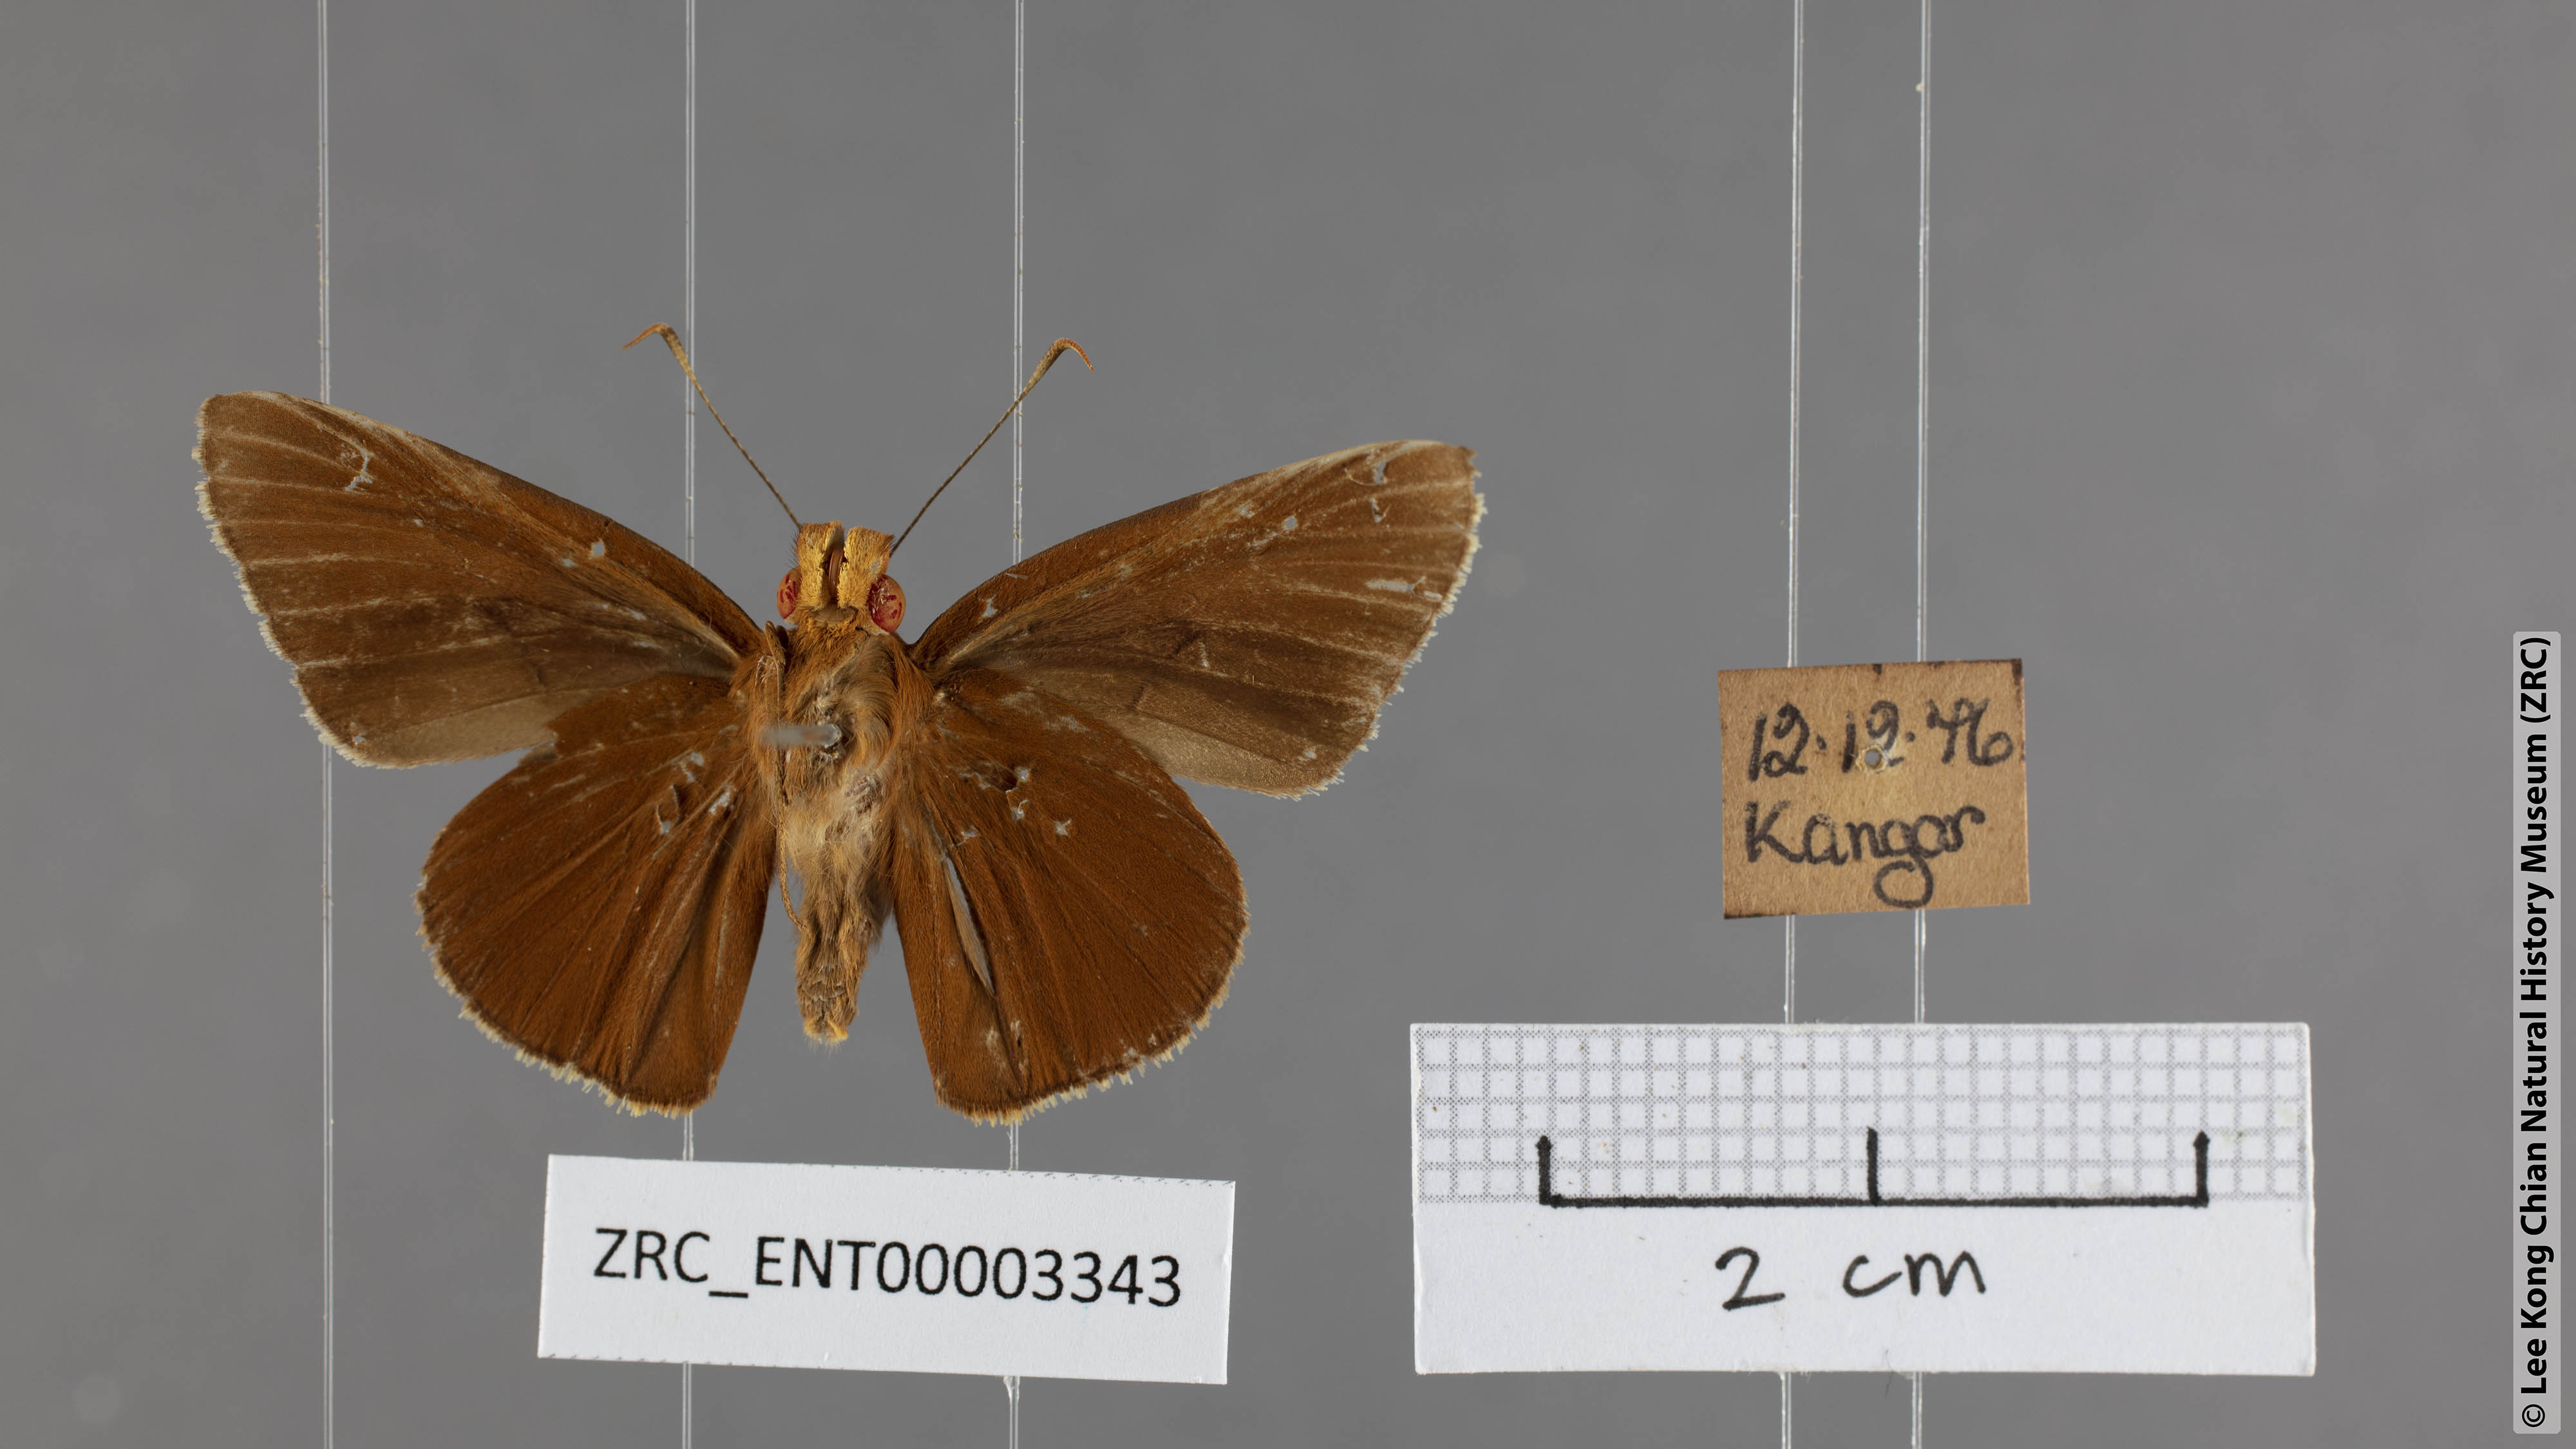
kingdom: Animalia
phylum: Arthropoda
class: Insecta
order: Lepidoptera
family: Hesperiidae
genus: Matapa
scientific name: Matapa
